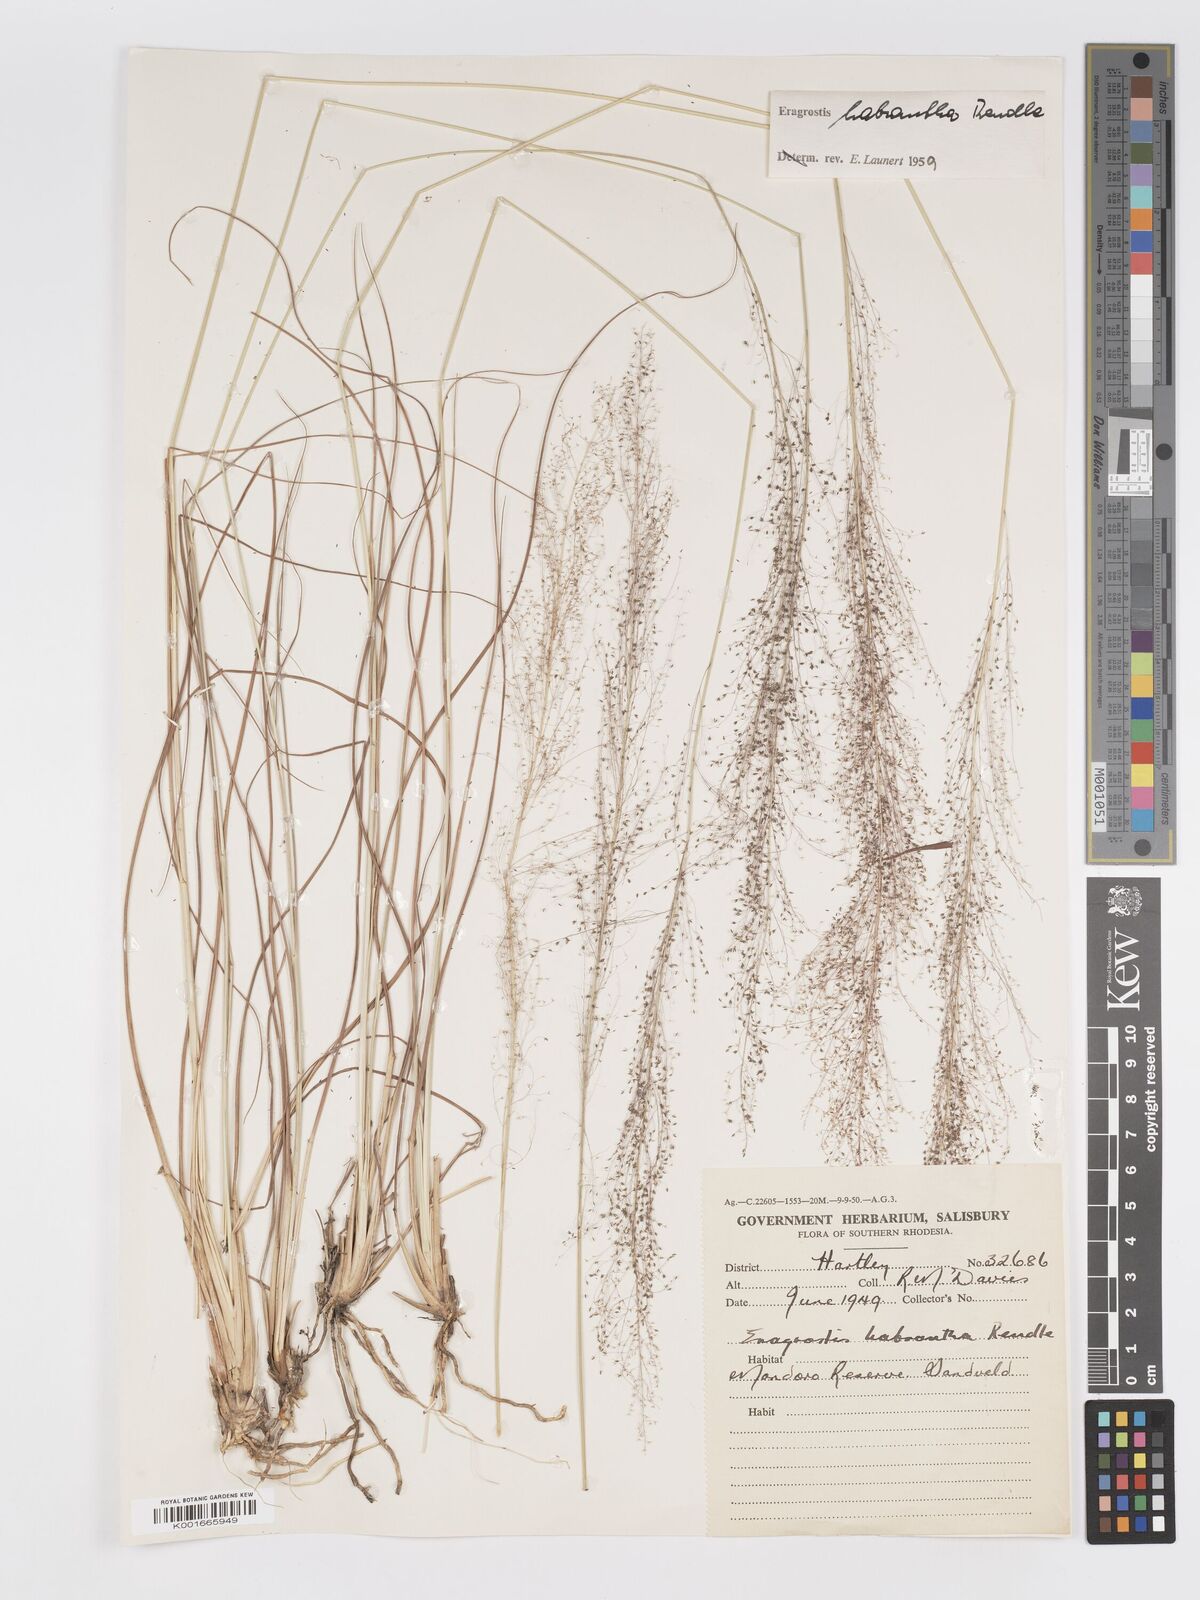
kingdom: Plantae
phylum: Tracheophyta
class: Liliopsida
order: Poales
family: Poaceae
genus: Eragrostis
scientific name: Eragrostis habrantha
